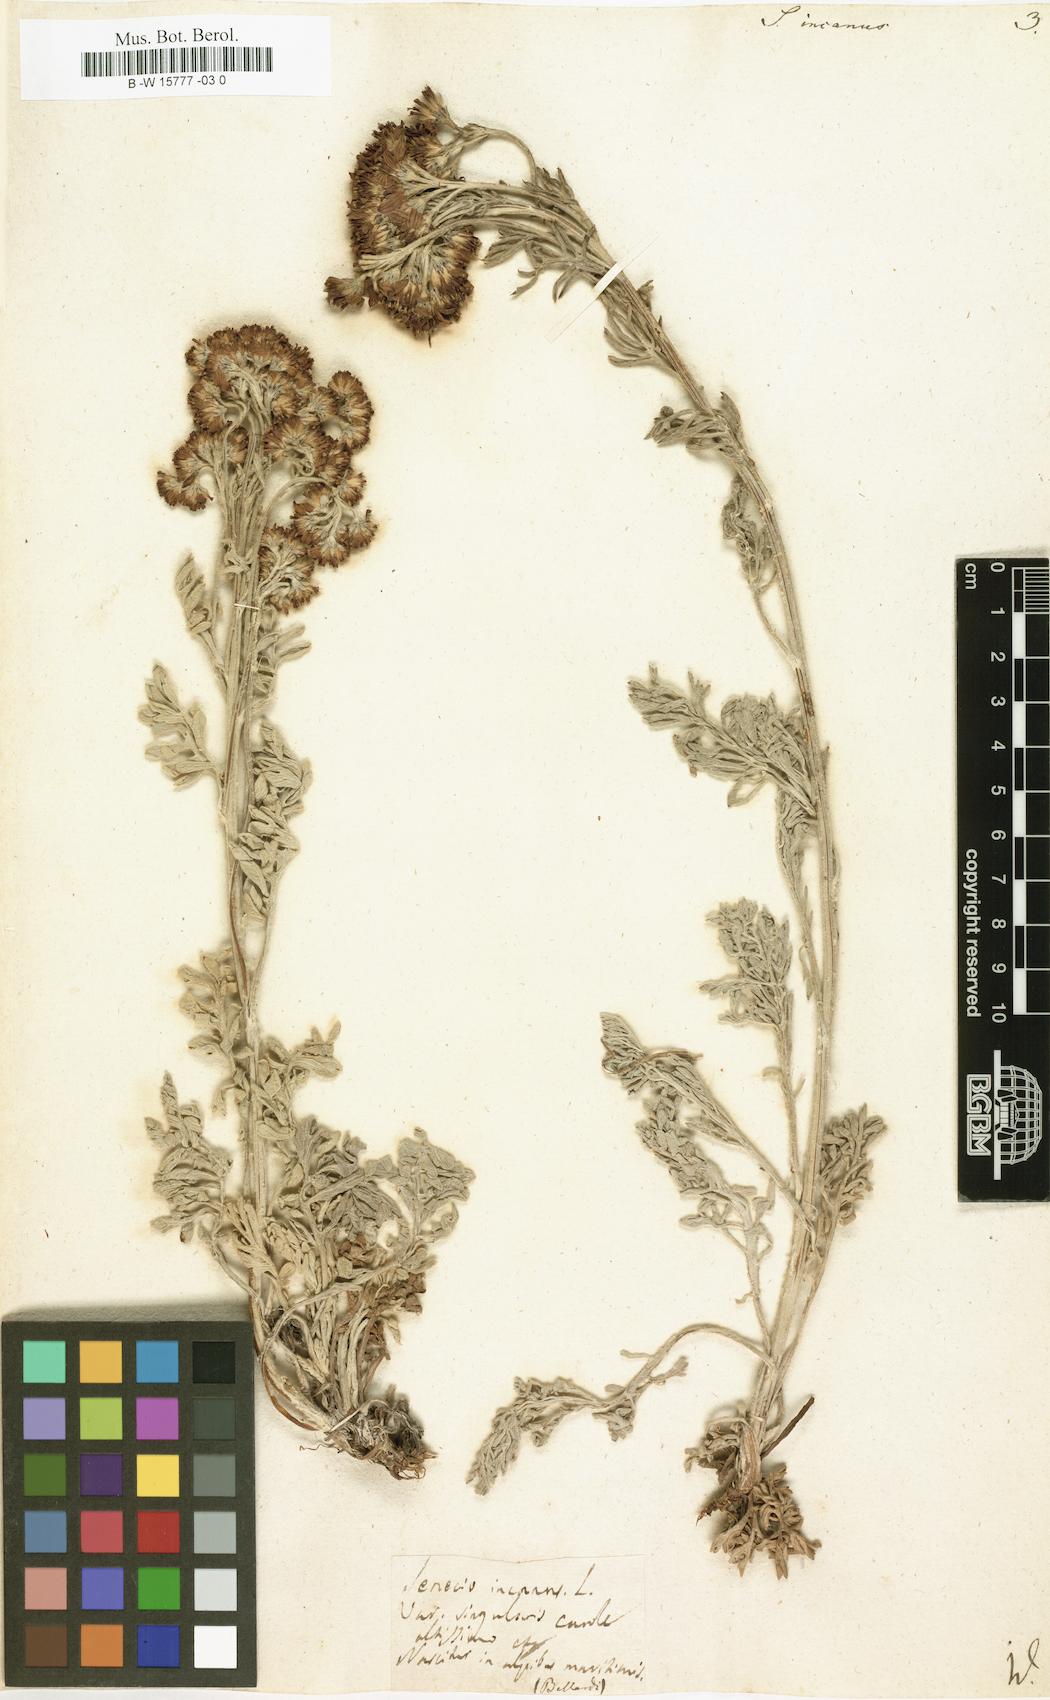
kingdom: Plantae
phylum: Tracheophyta
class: Magnoliopsida
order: Asterales
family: Asteraceae
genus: Jacobaea
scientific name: Jacobaea incana
